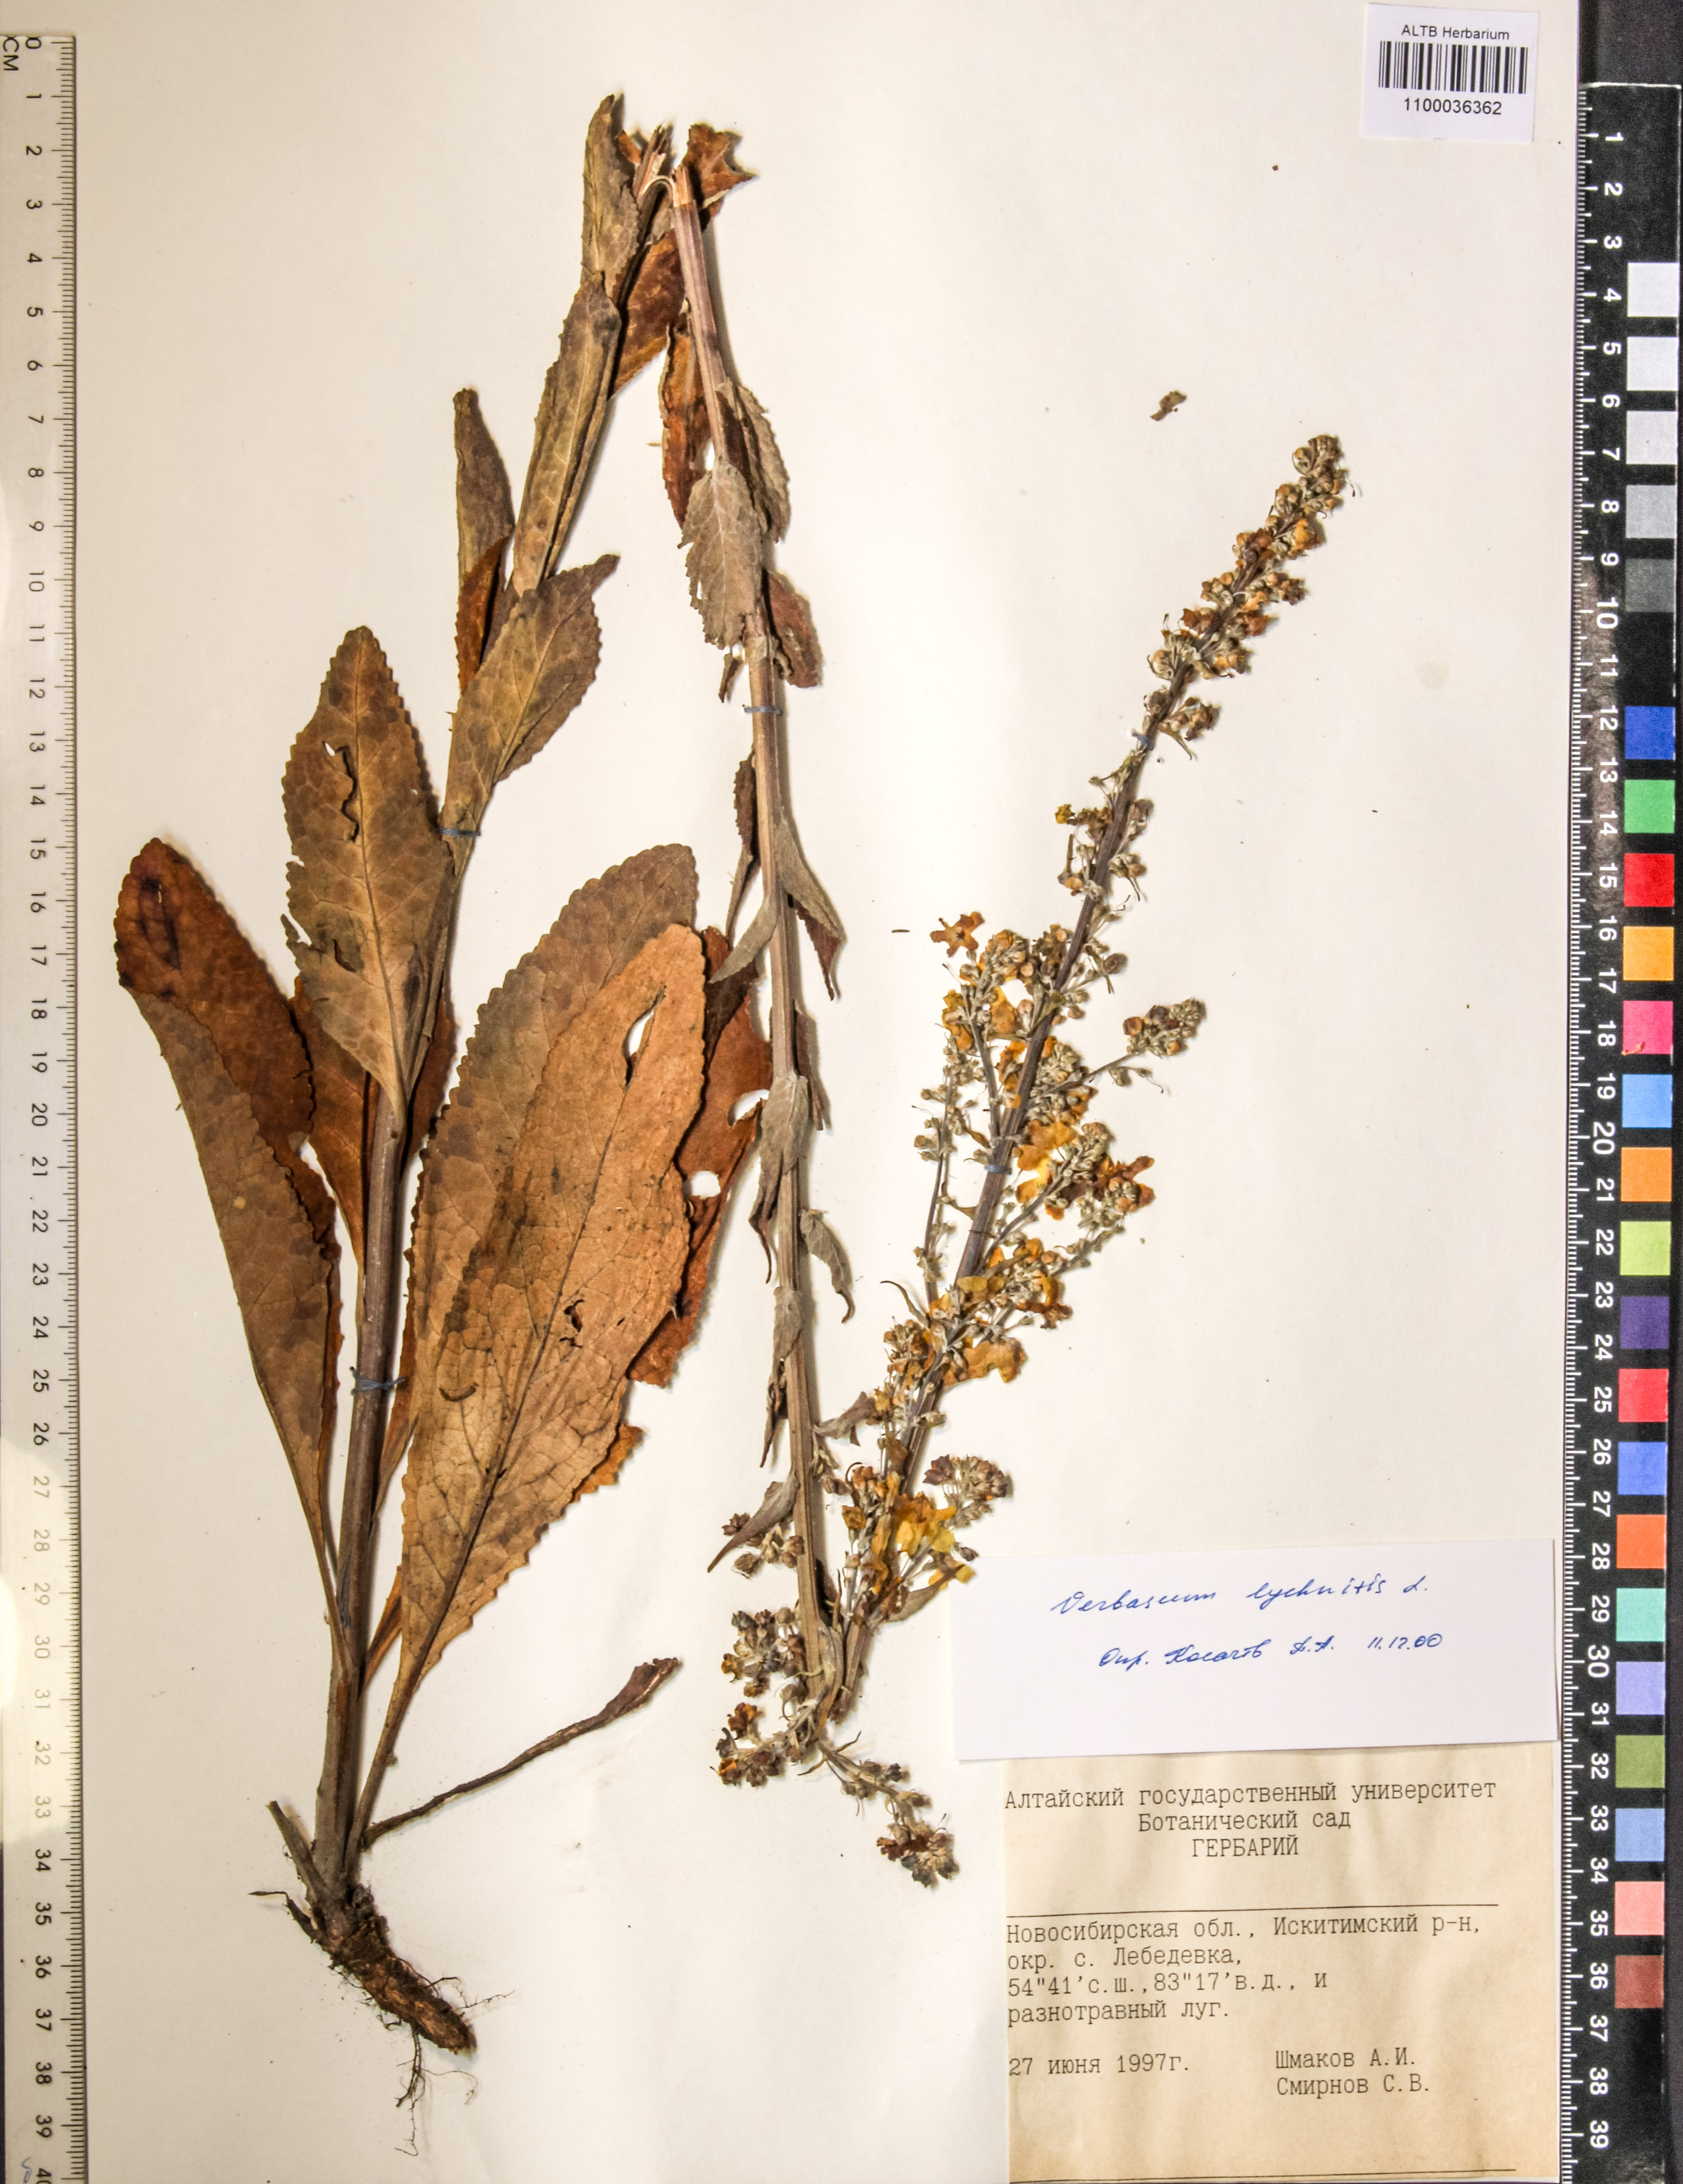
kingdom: Plantae
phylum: Tracheophyta
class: Magnoliopsida
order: Lamiales
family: Scrophulariaceae
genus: Verbascum
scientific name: Verbascum lychnitis
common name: White mullein
